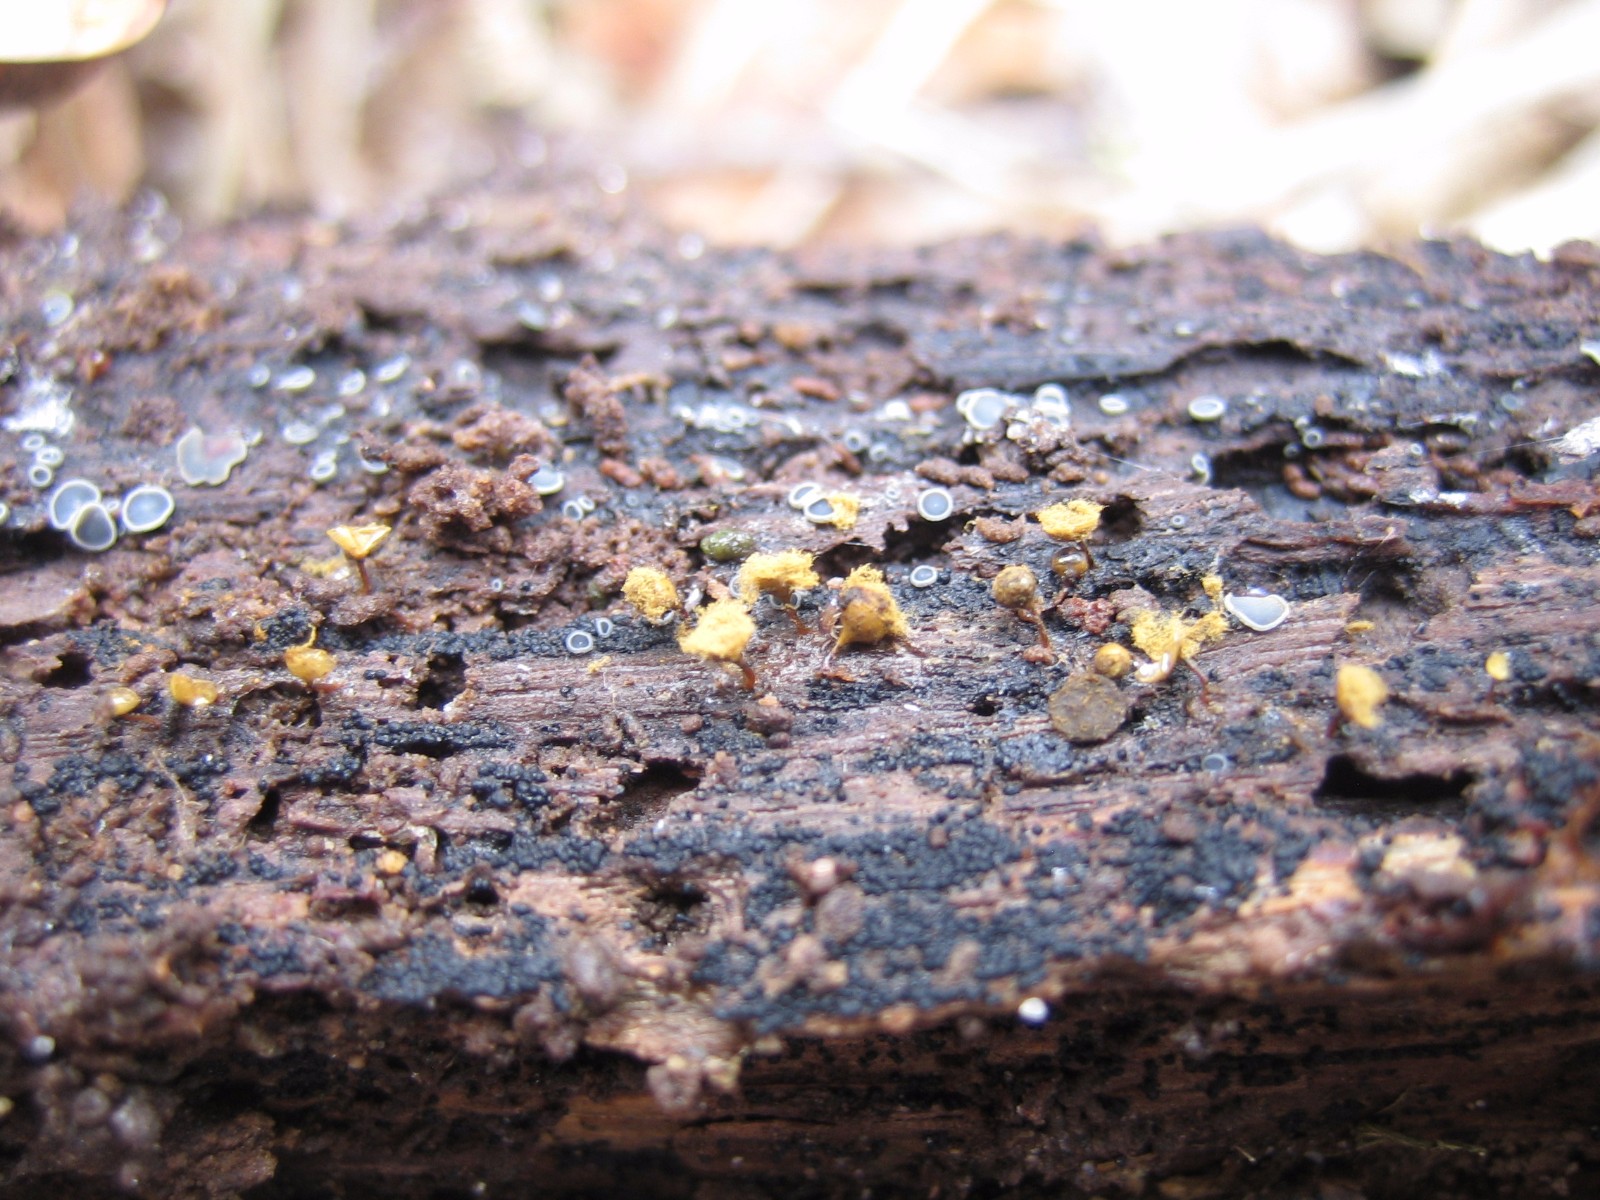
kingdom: Protozoa
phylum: Mycetozoa
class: Myxomycetes
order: Trichiales
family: Trichiaceae
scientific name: Trichiaceae
